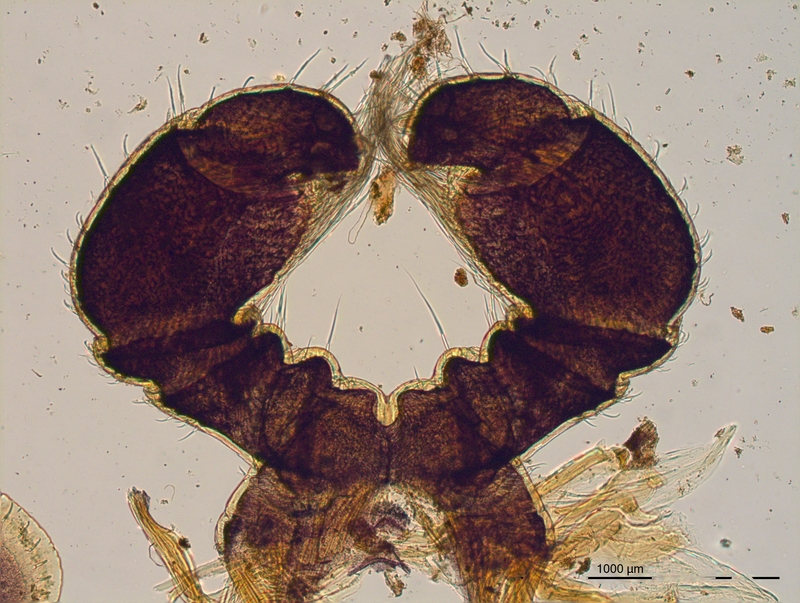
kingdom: Animalia
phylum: Arthropoda
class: Diplopoda
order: Julida
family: Parajulidae
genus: Karteroiulus
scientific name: Karteroiulus niger
